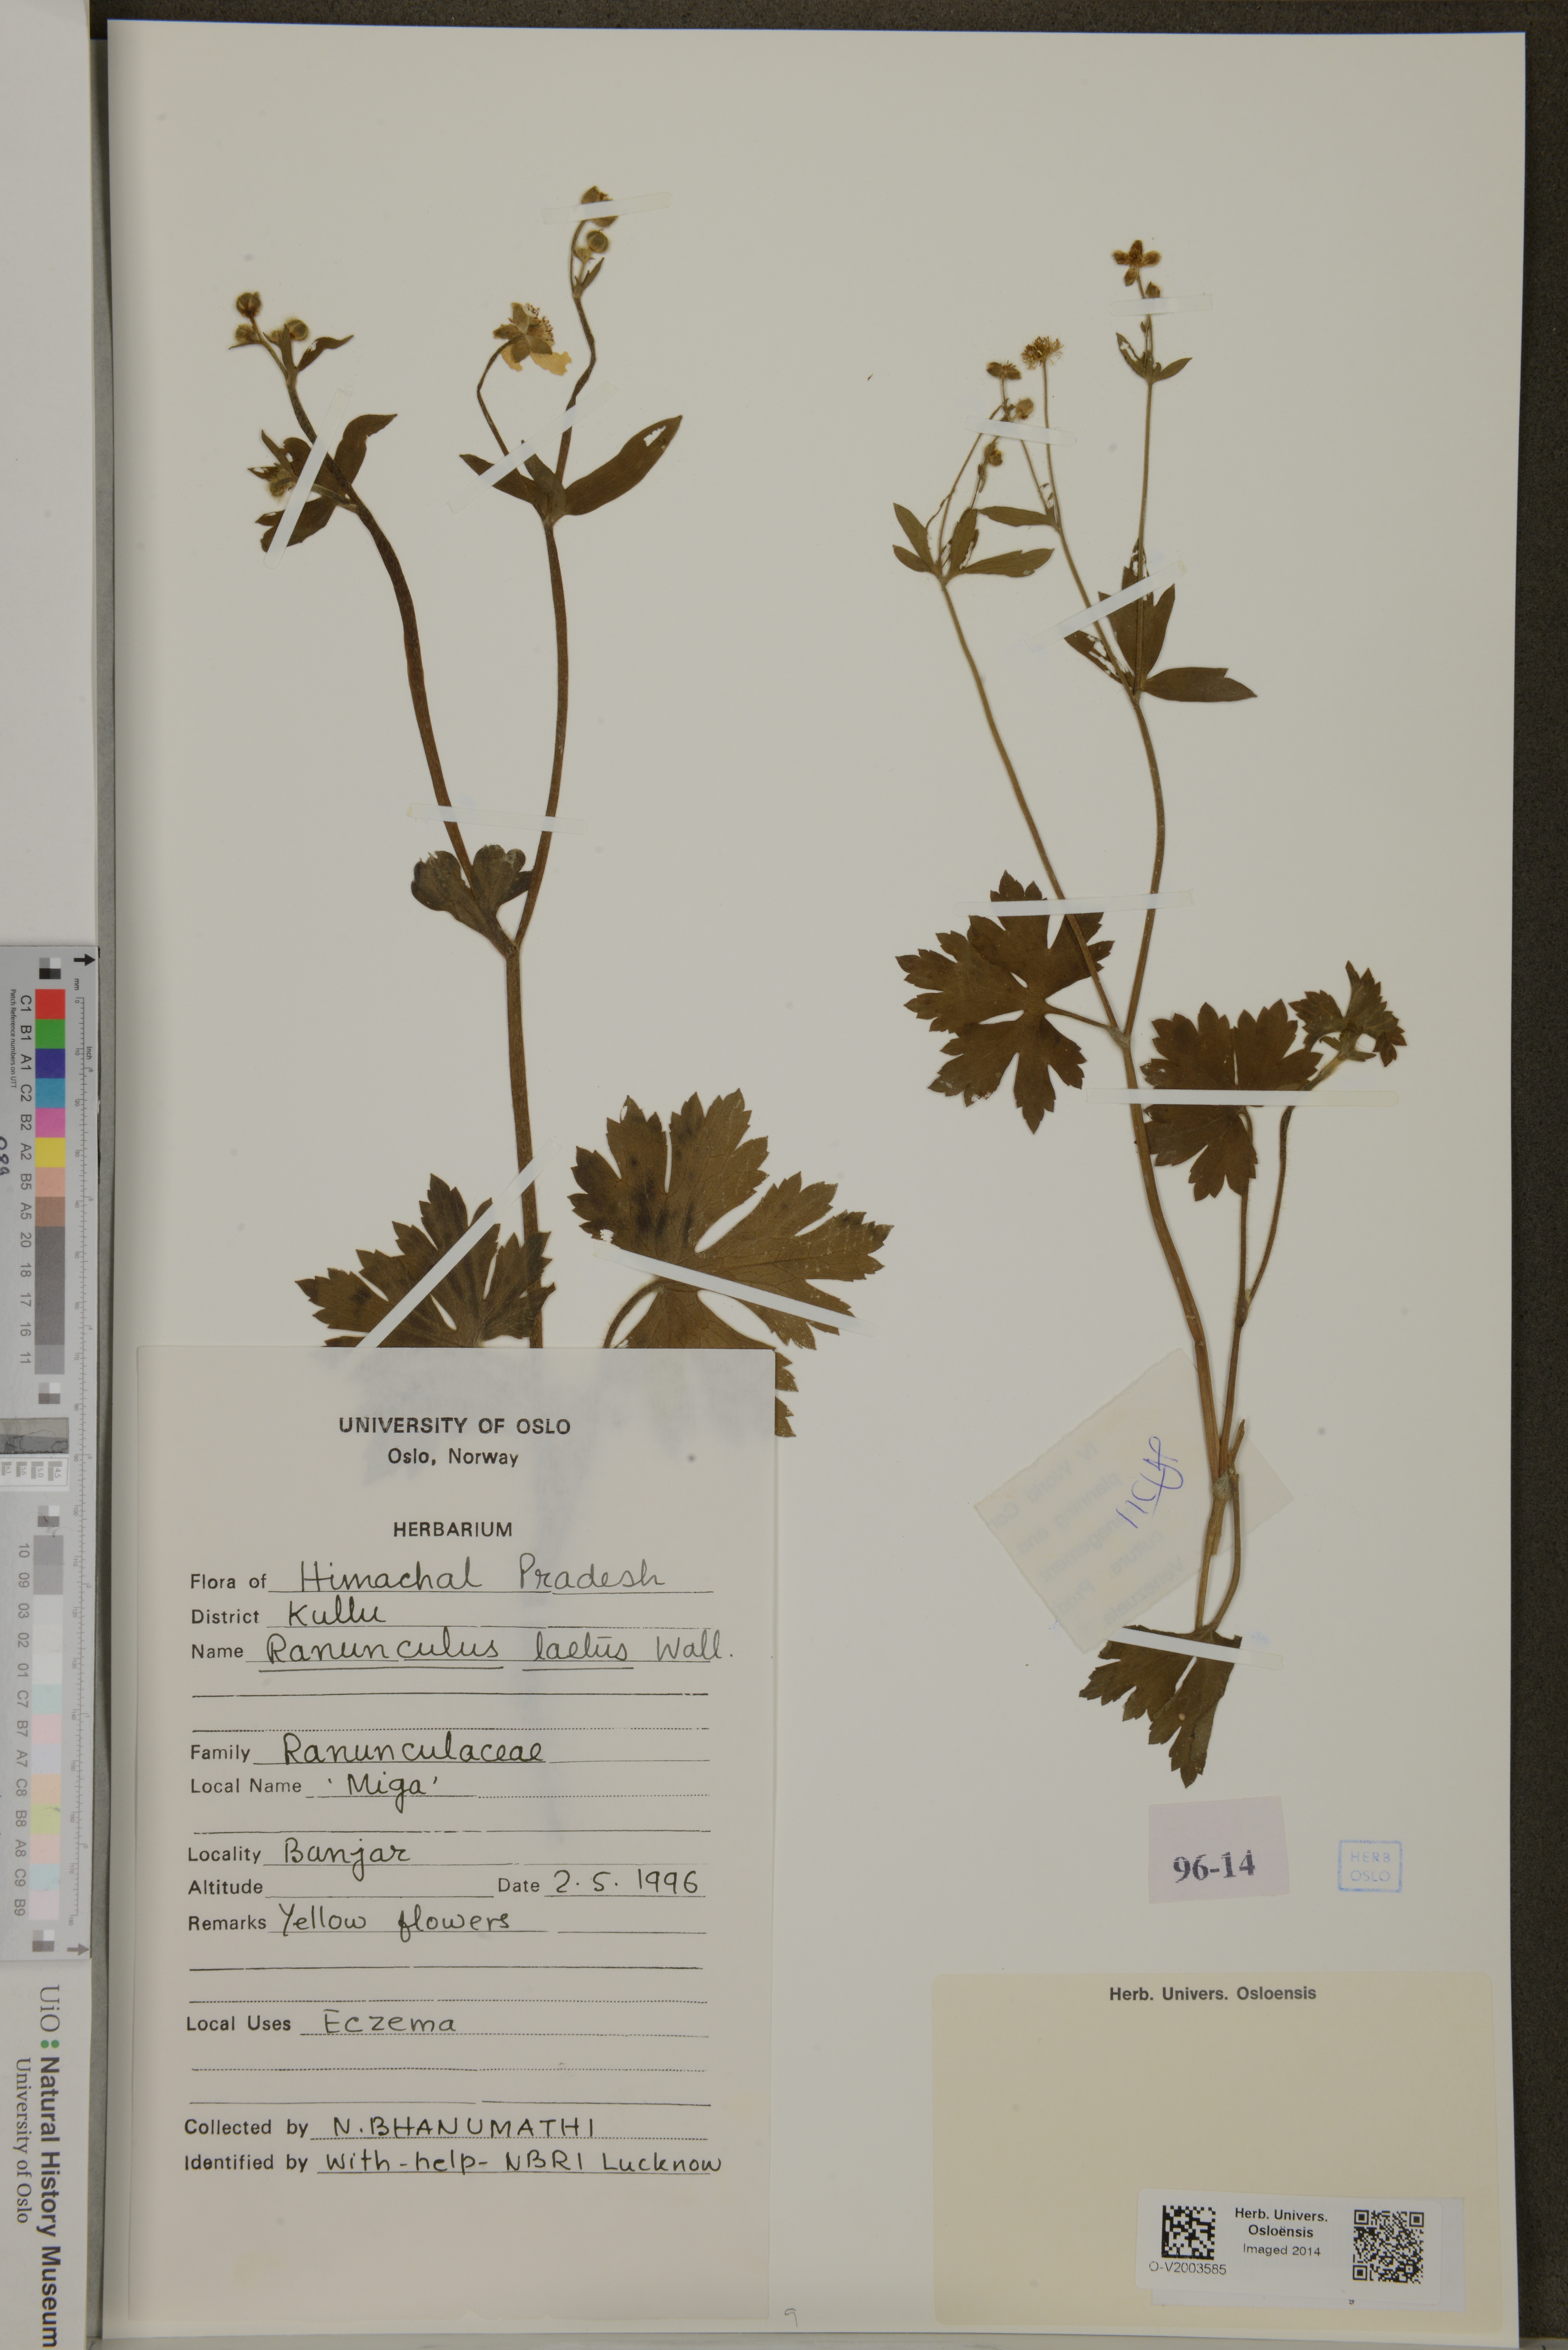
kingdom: Plantae
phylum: Tracheophyta
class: Magnoliopsida
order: Ranunculales
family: Ranunculaceae
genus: Ranunculus
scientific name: Ranunculus distans
